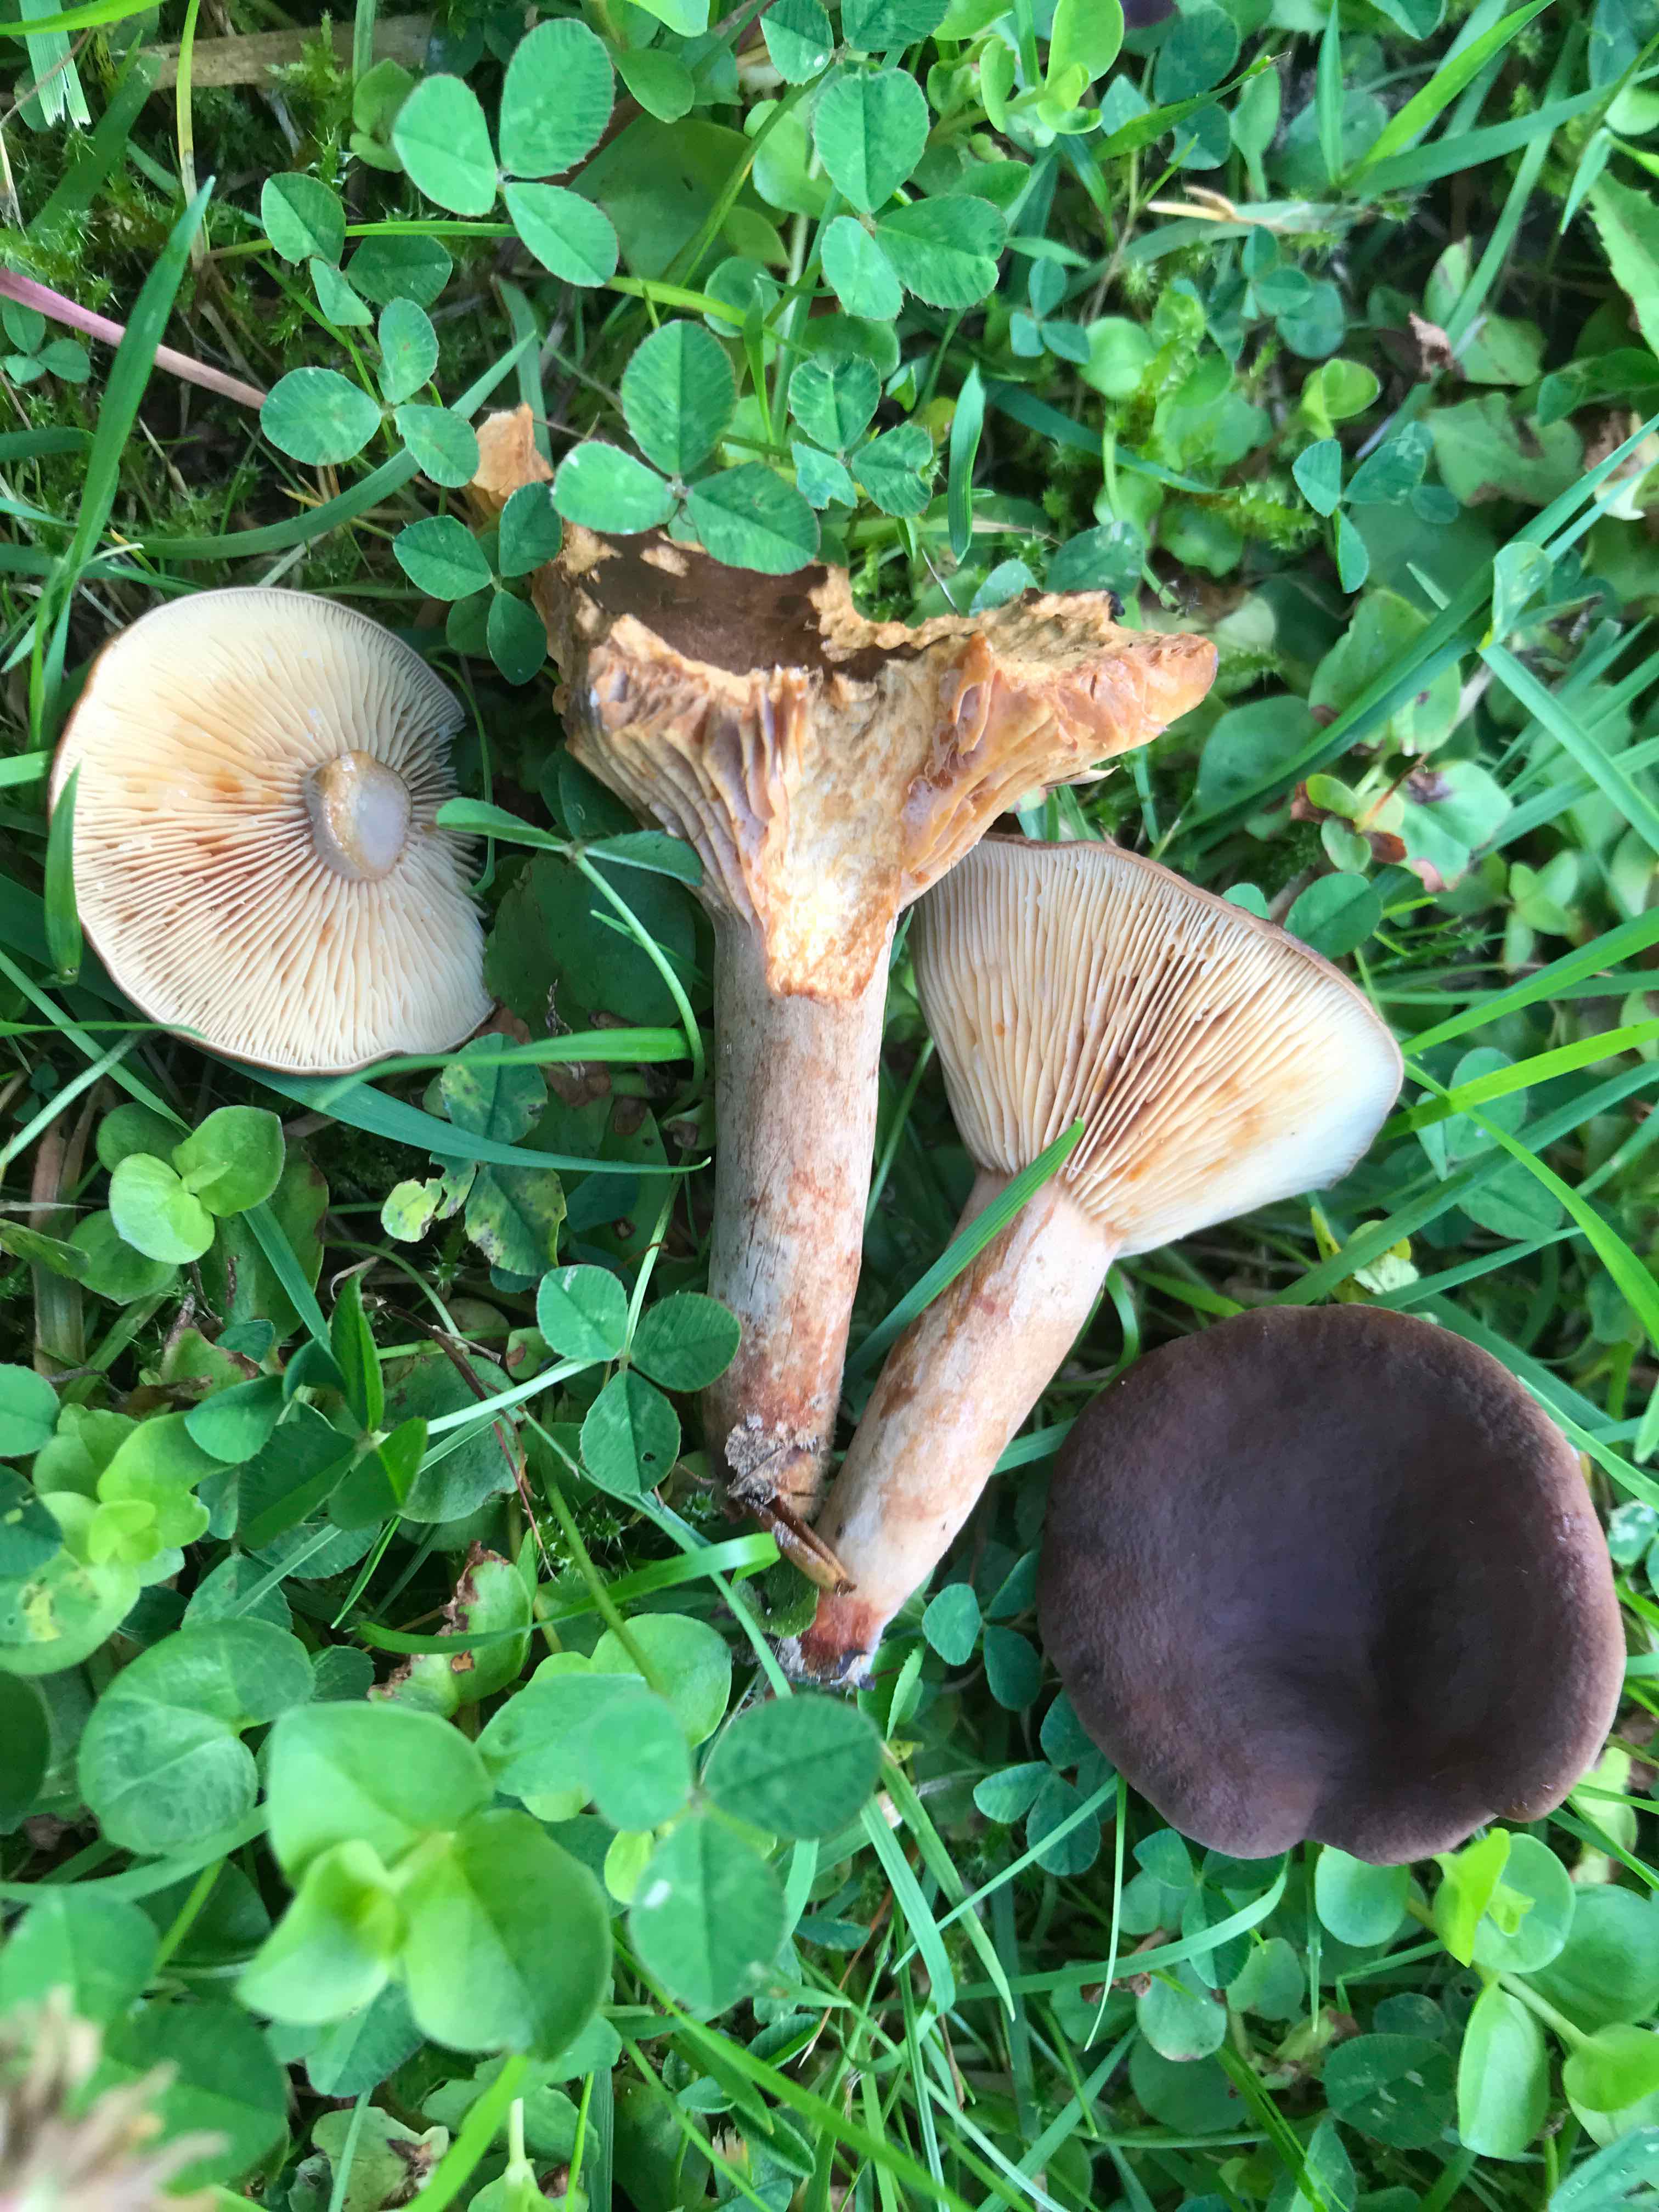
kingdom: Fungi
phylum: Basidiomycota
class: Agaricomycetes
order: Russulales
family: Russulaceae
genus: Lactarius
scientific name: Lactarius serifluus
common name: tæge-mælkehat
